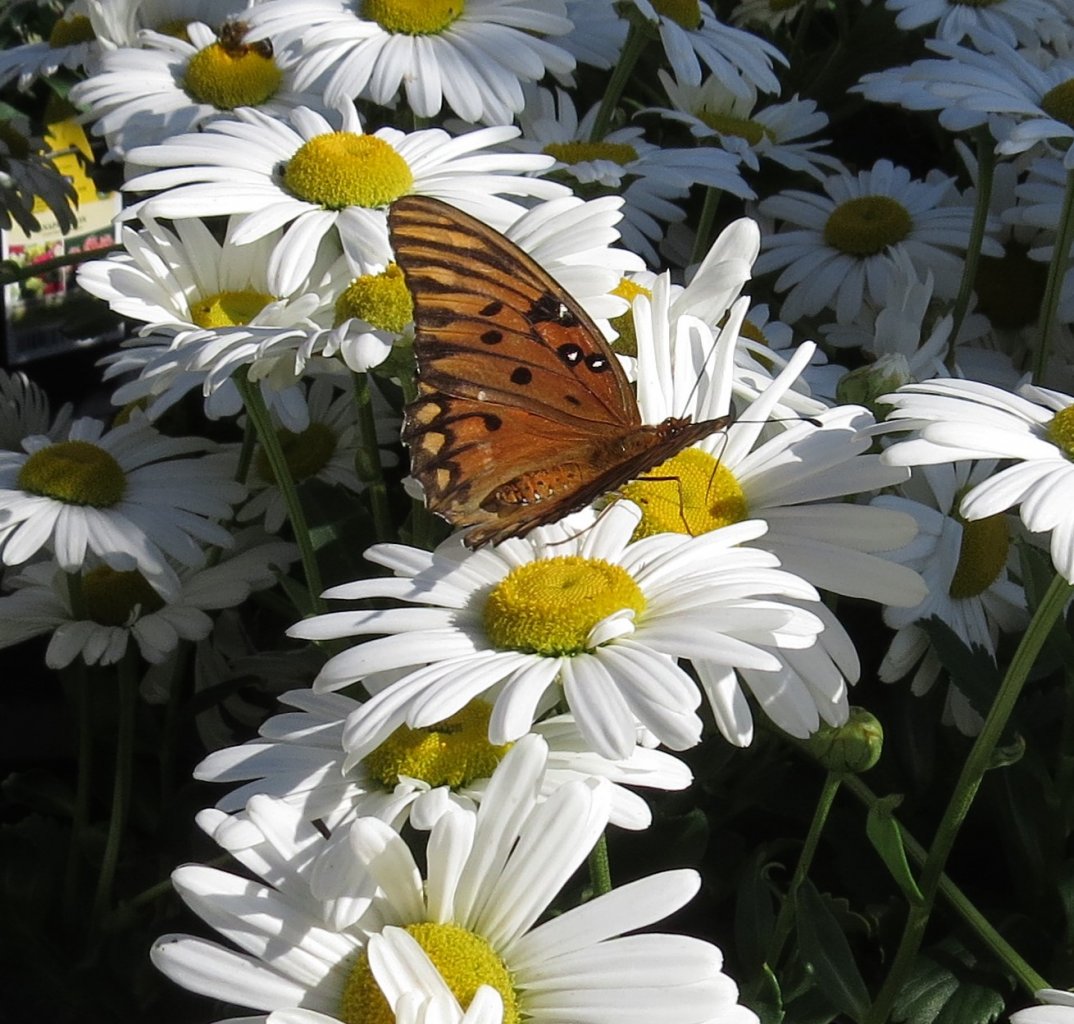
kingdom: Animalia
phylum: Arthropoda
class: Insecta
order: Lepidoptera
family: Nymphalidae
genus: Dione
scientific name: Dione vanillae
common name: Gulf Fritillary
